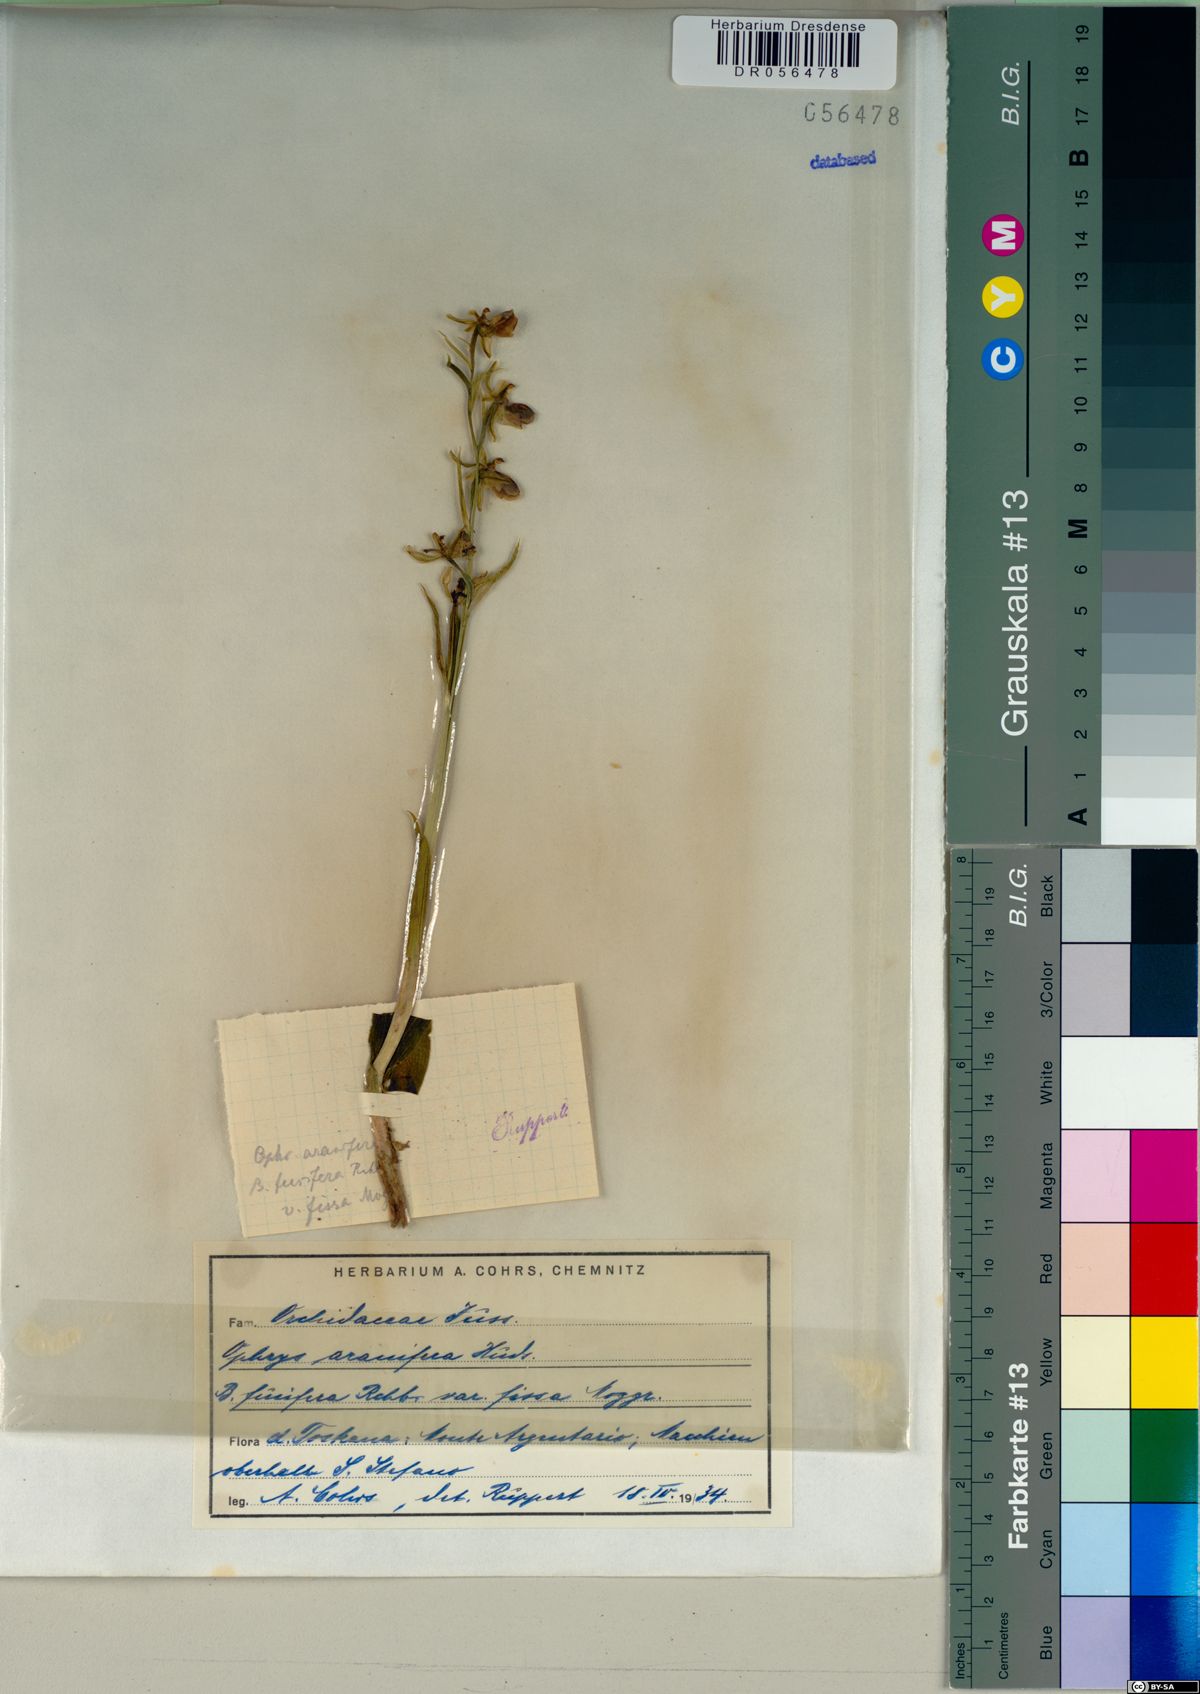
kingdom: Plantae
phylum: Tracheophyta
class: Liliopsida
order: Asparagales
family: Orchidaceae
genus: Ophrys
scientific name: Ophrys sphegodes
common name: Early spider-orchid
